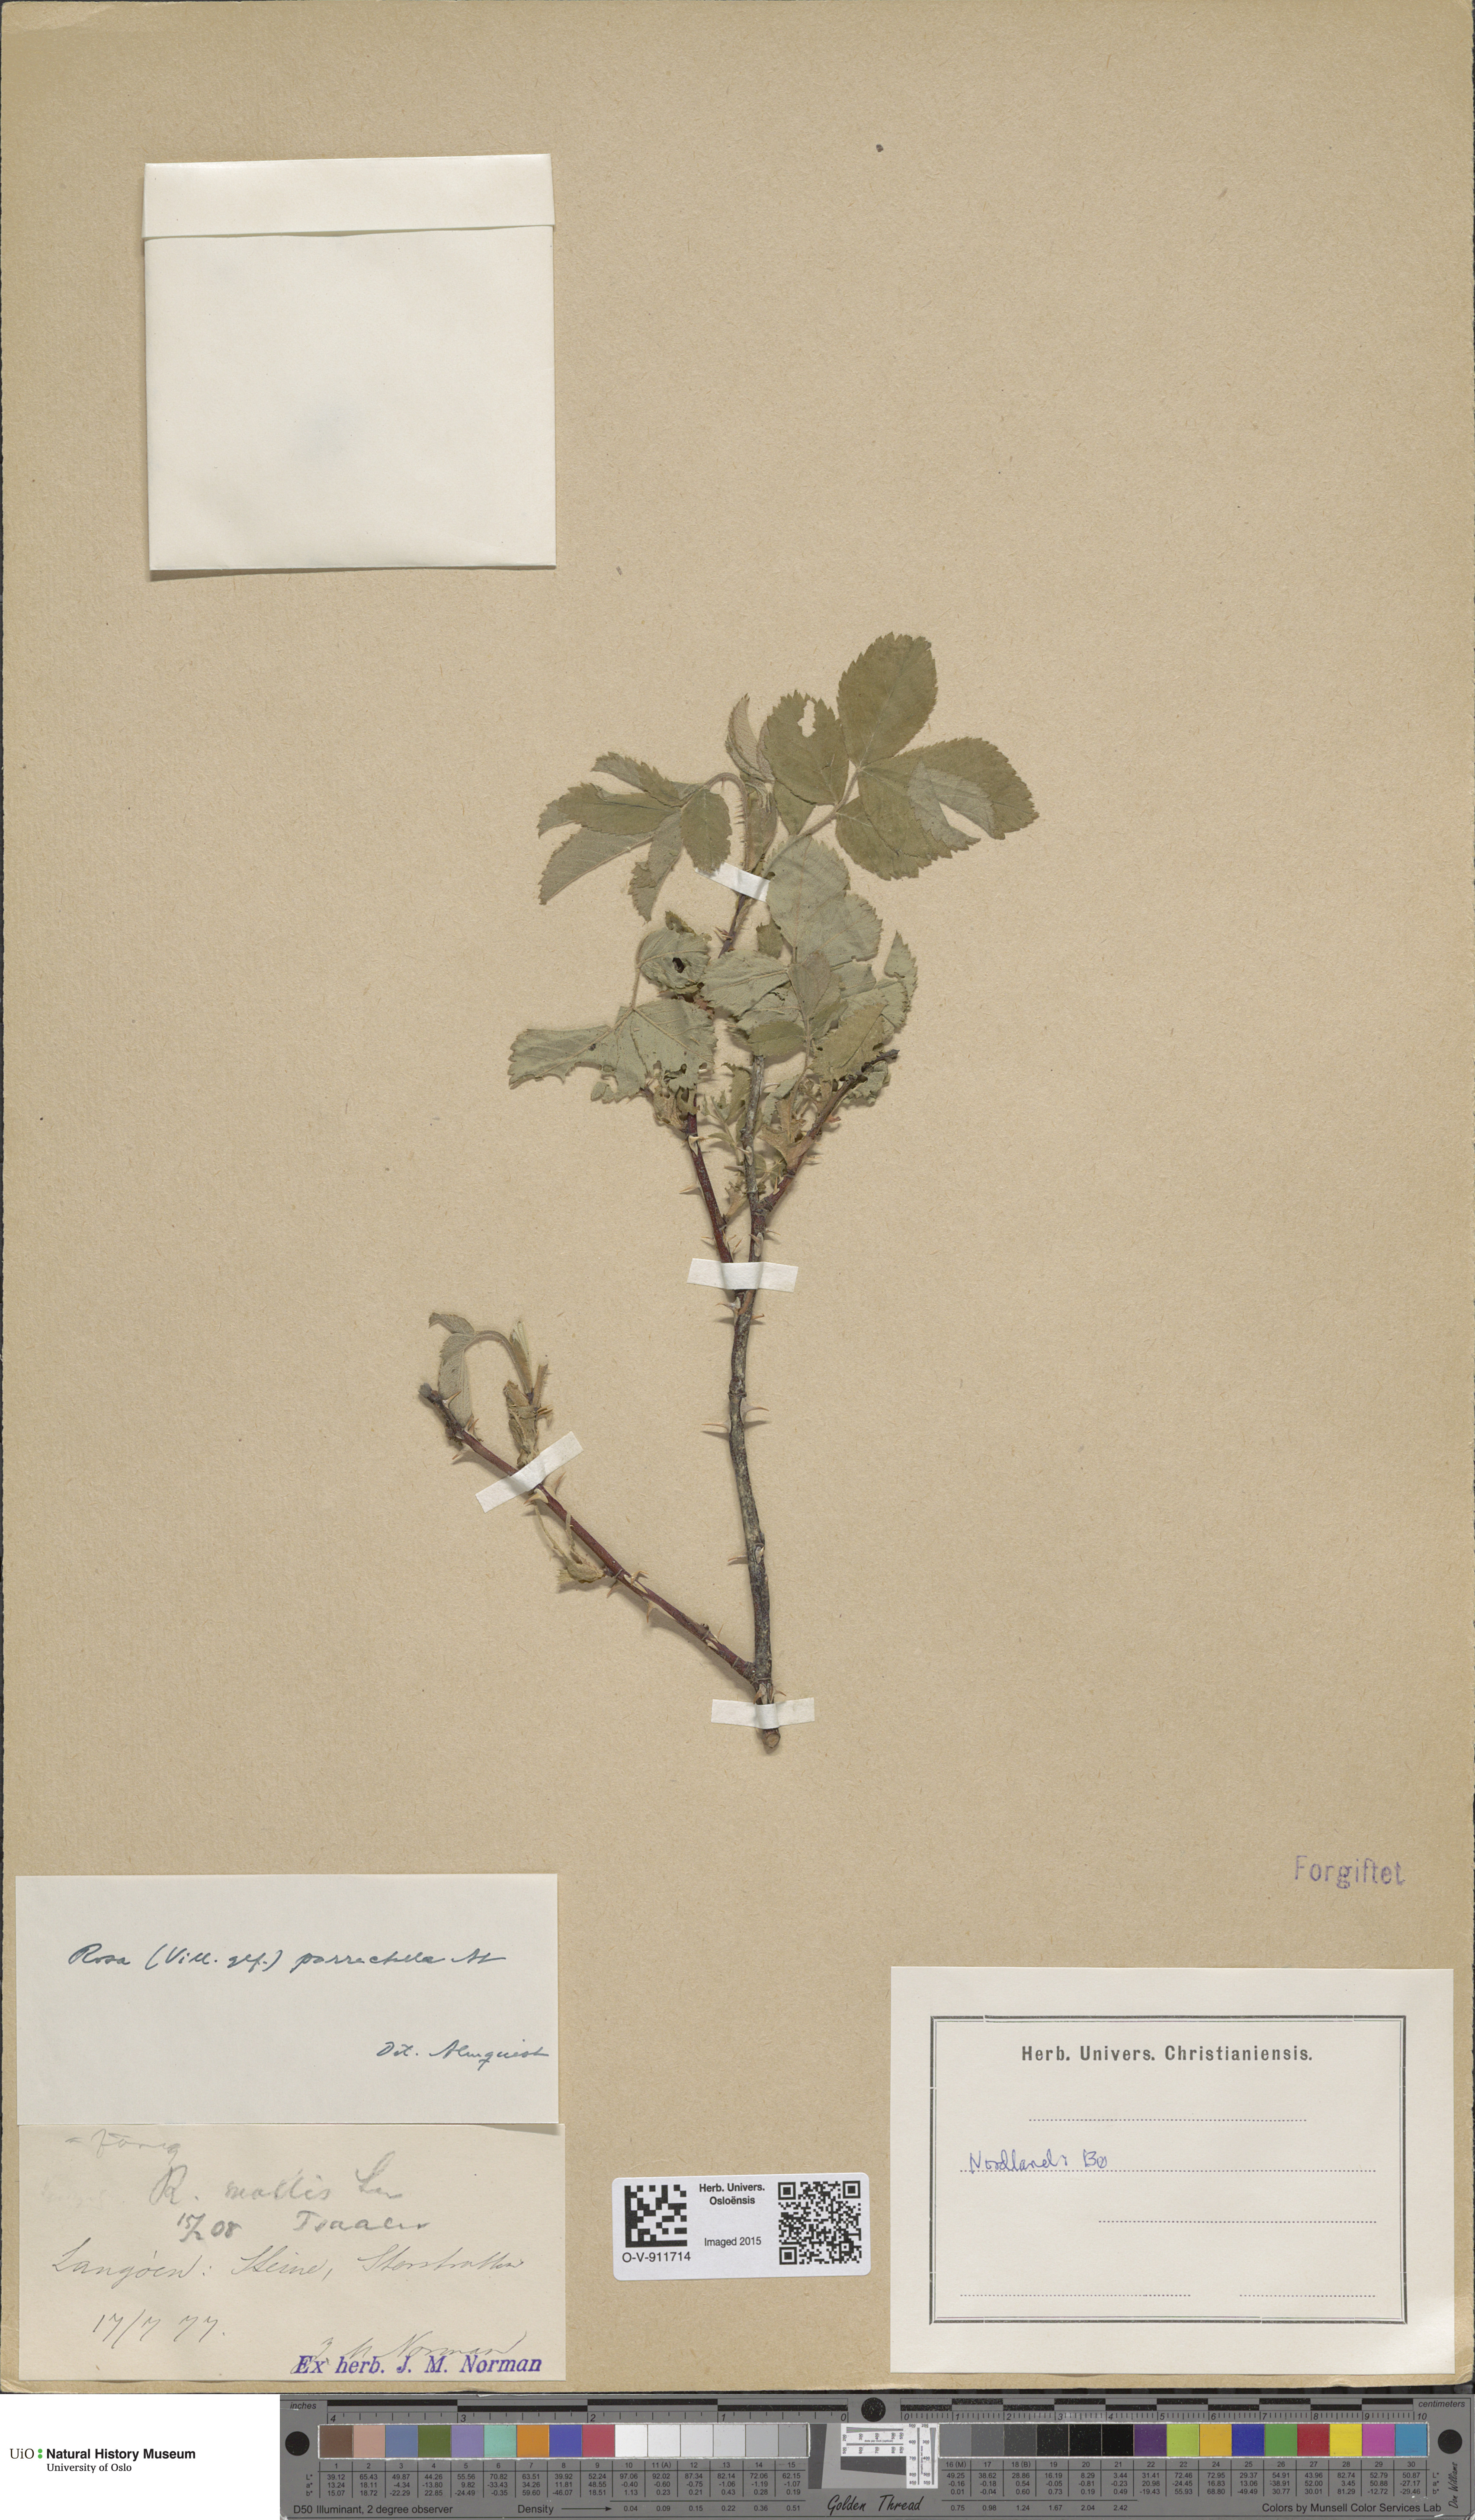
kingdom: Plantae
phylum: Tracheophyta
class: Magnoliopsida
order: Rosales
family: Rosaceae
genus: Rosa
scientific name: Rosa mollis
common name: Rose
